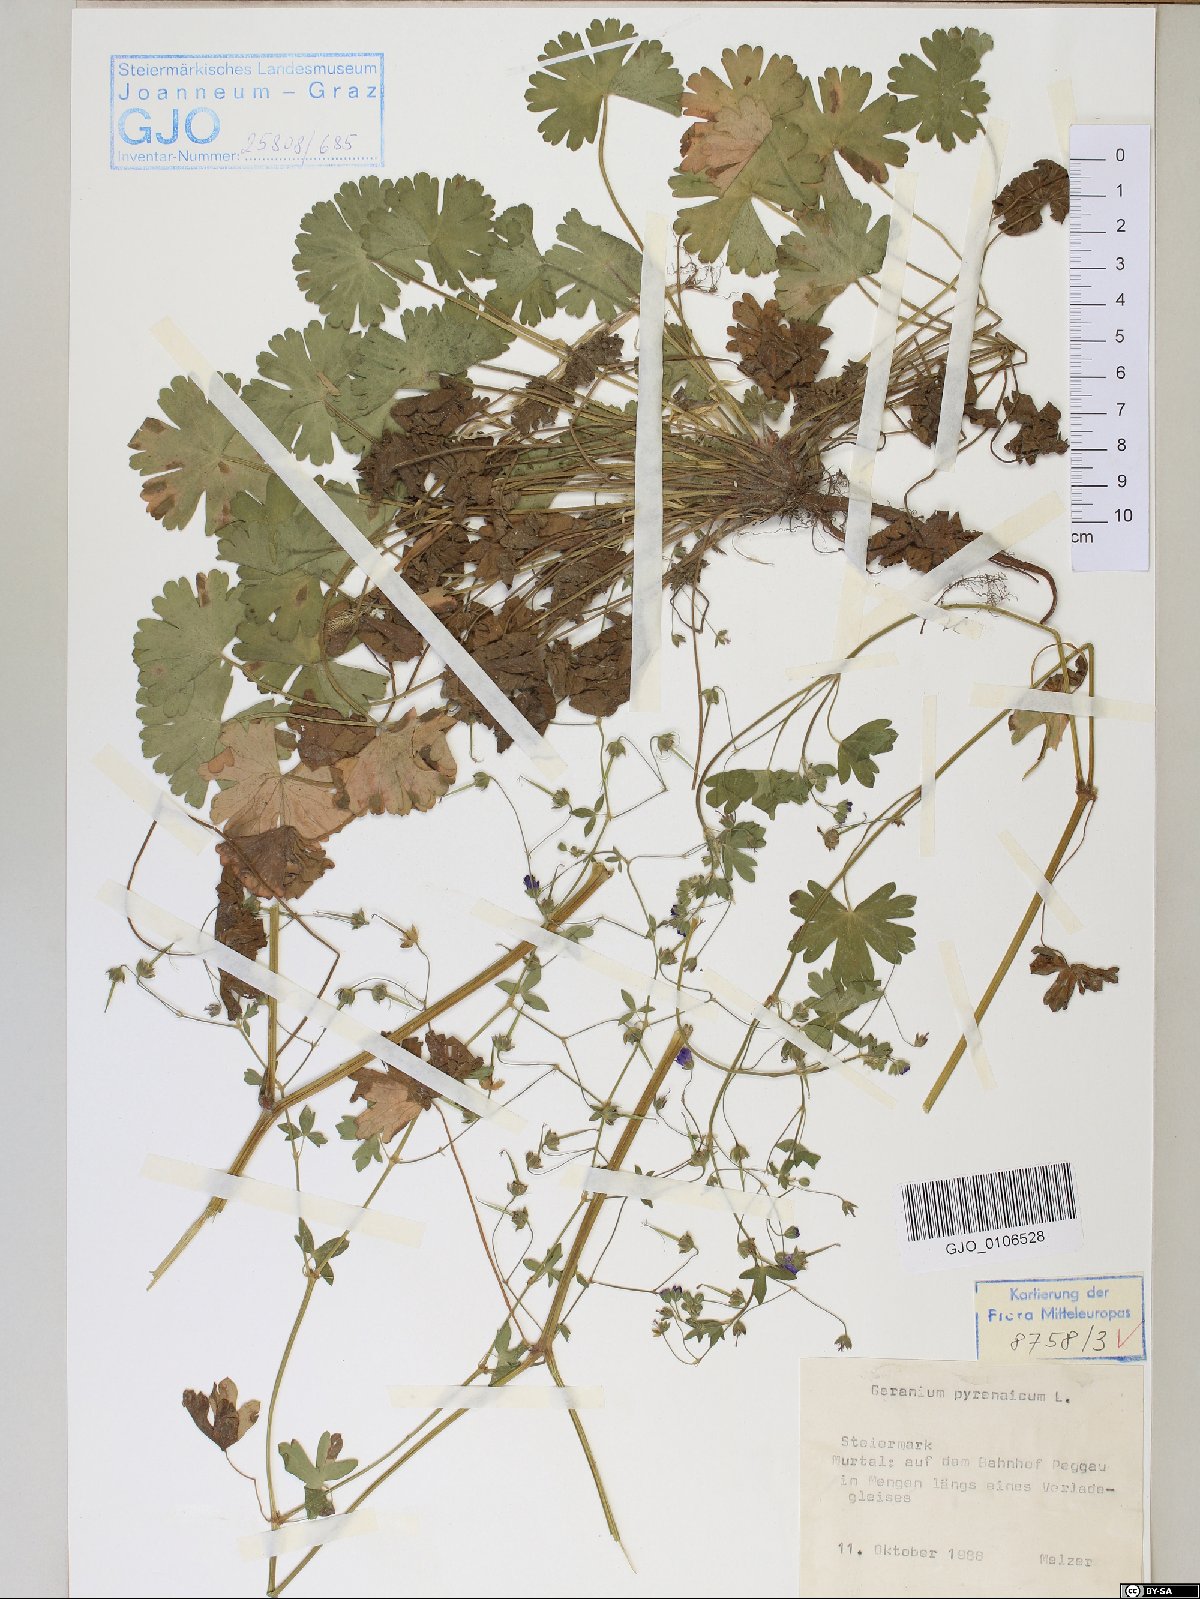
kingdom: Plantae
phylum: Tracheophyta
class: Magnoliopsida
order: Geraniales
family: Geraniaceae
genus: Geranium
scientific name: Geranium pyrenaicum
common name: Hedgerow crane's-bill
